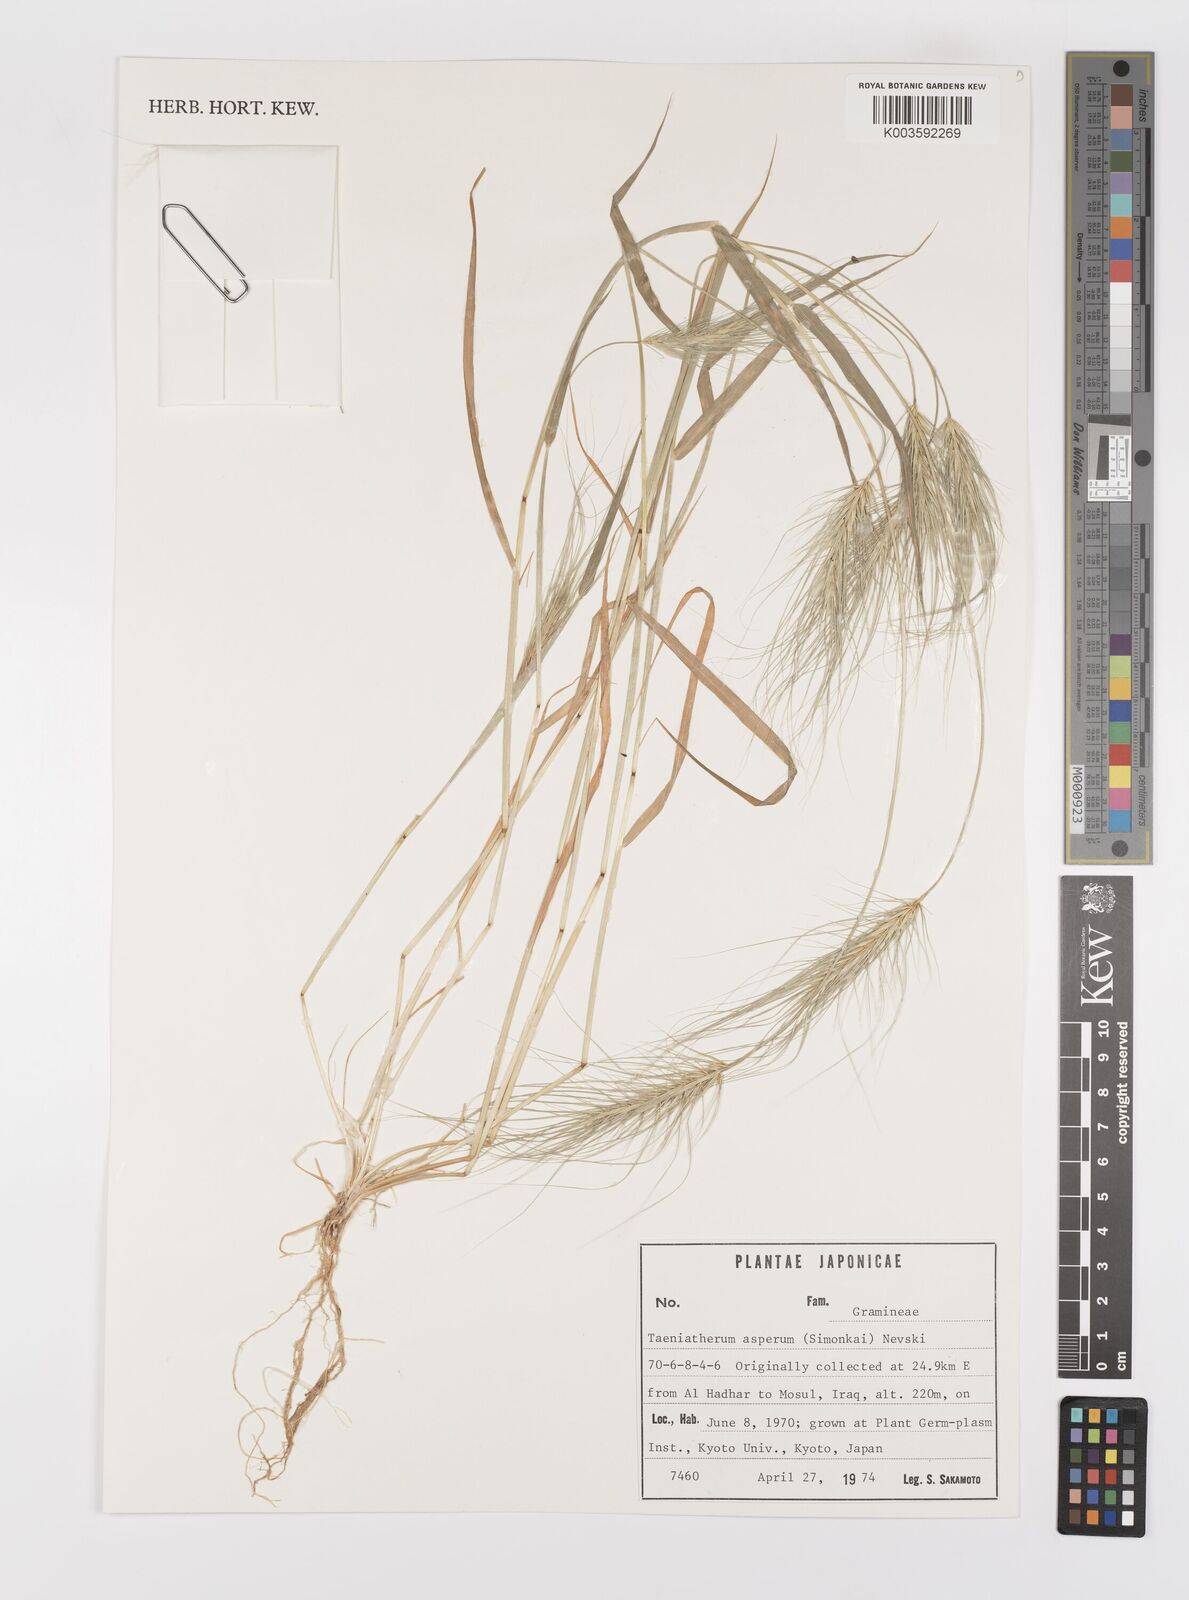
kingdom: Plantae
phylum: Tracheophyta
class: Liliopsida
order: Poales
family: Poaceae
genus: Taeniatherum
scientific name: Taeniatherum caput-medusae
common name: Medusahead
